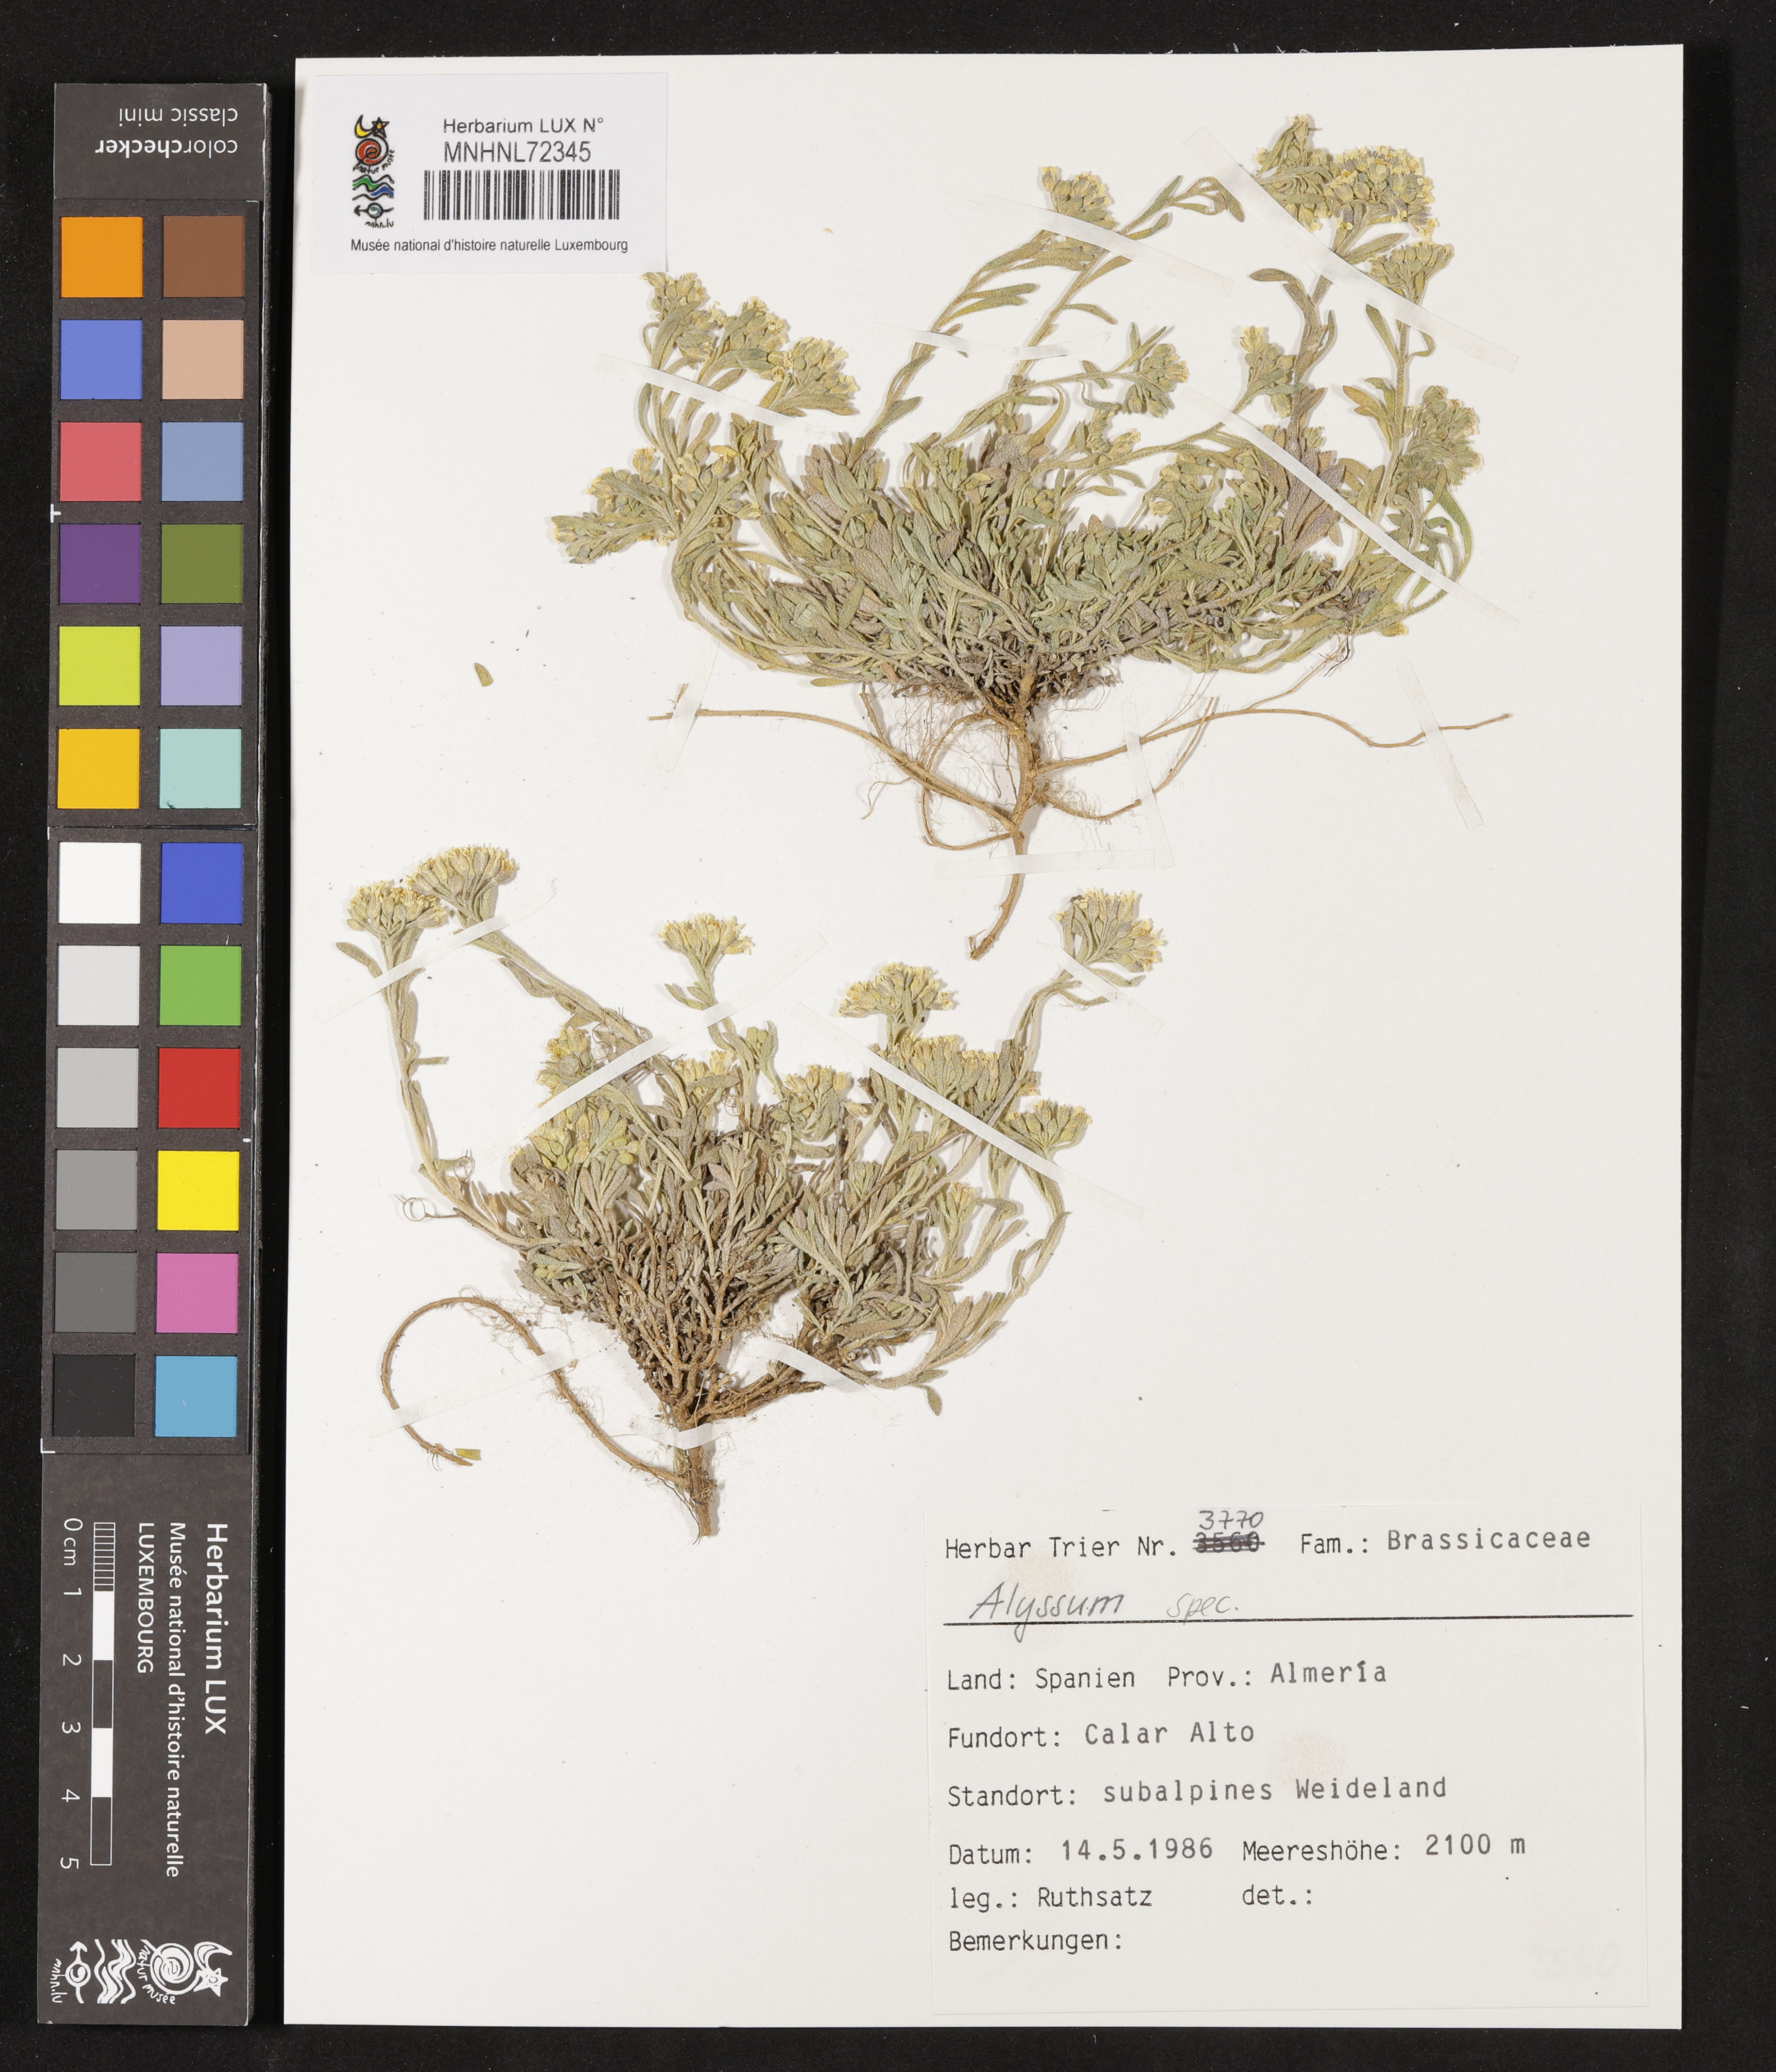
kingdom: Plantae
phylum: Tracheophyta
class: Magnoliopsida
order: Brassicales
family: Brassicaceae
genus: Alyssum
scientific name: Alyssum
